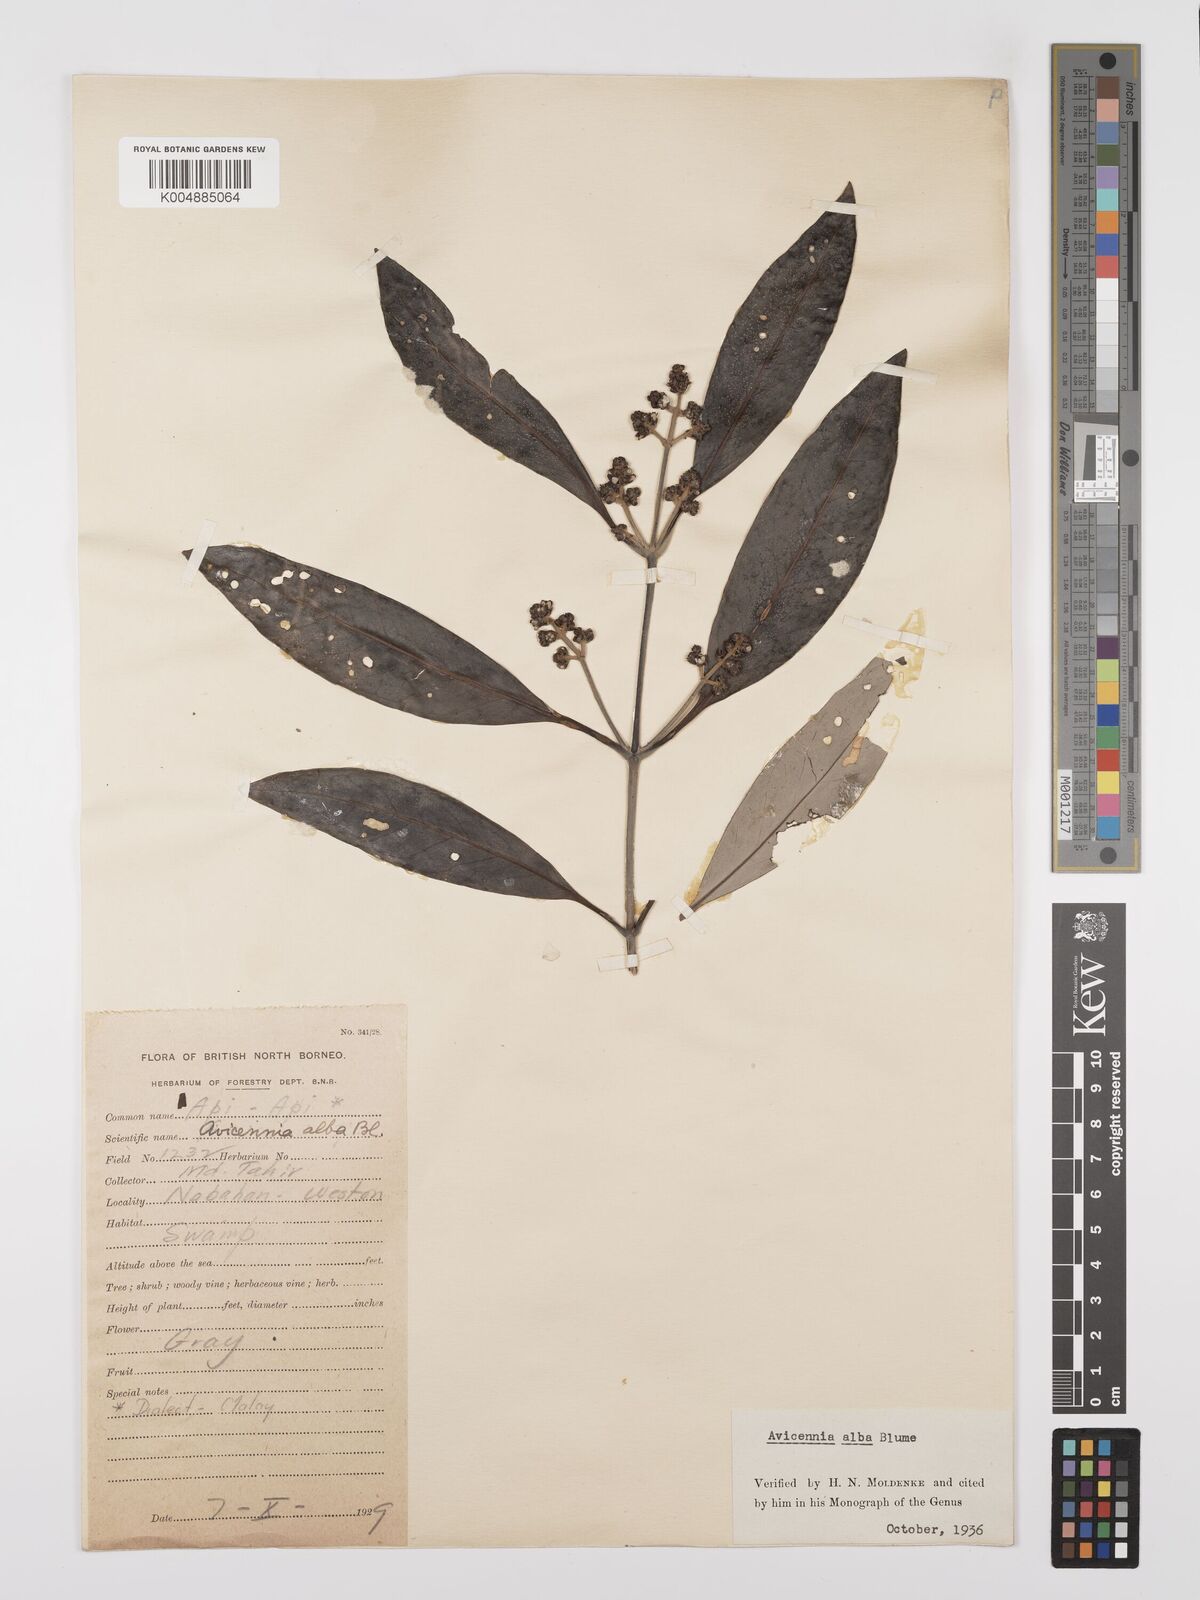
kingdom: Plantae
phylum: Tracheophyta
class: Magnoliopsida
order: Lamiales
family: Acanthaceae
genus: Avicennia
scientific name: Avicennia alba
